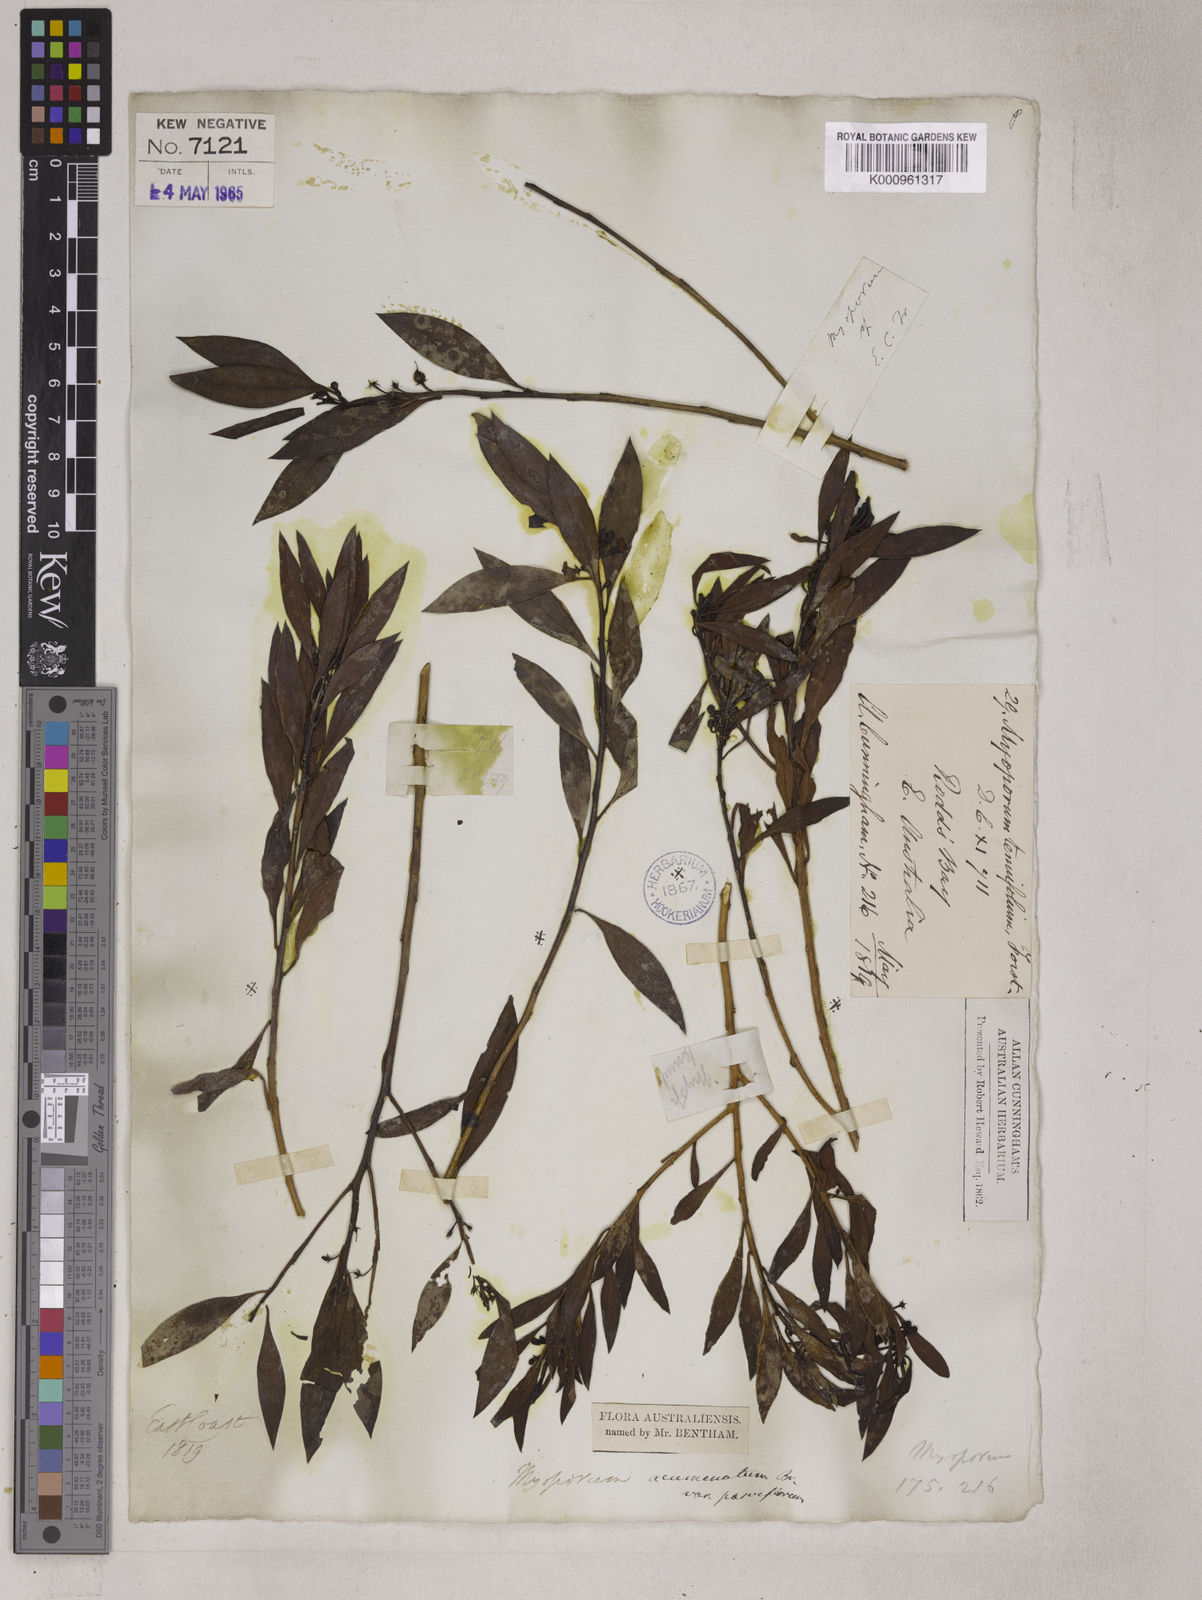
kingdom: Plantae
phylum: Tracheophyta
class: Magnoliopsida
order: Lamiales
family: Scrophulariaceae
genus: Myoporum
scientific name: Myoporum montanum
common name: Waterbush
